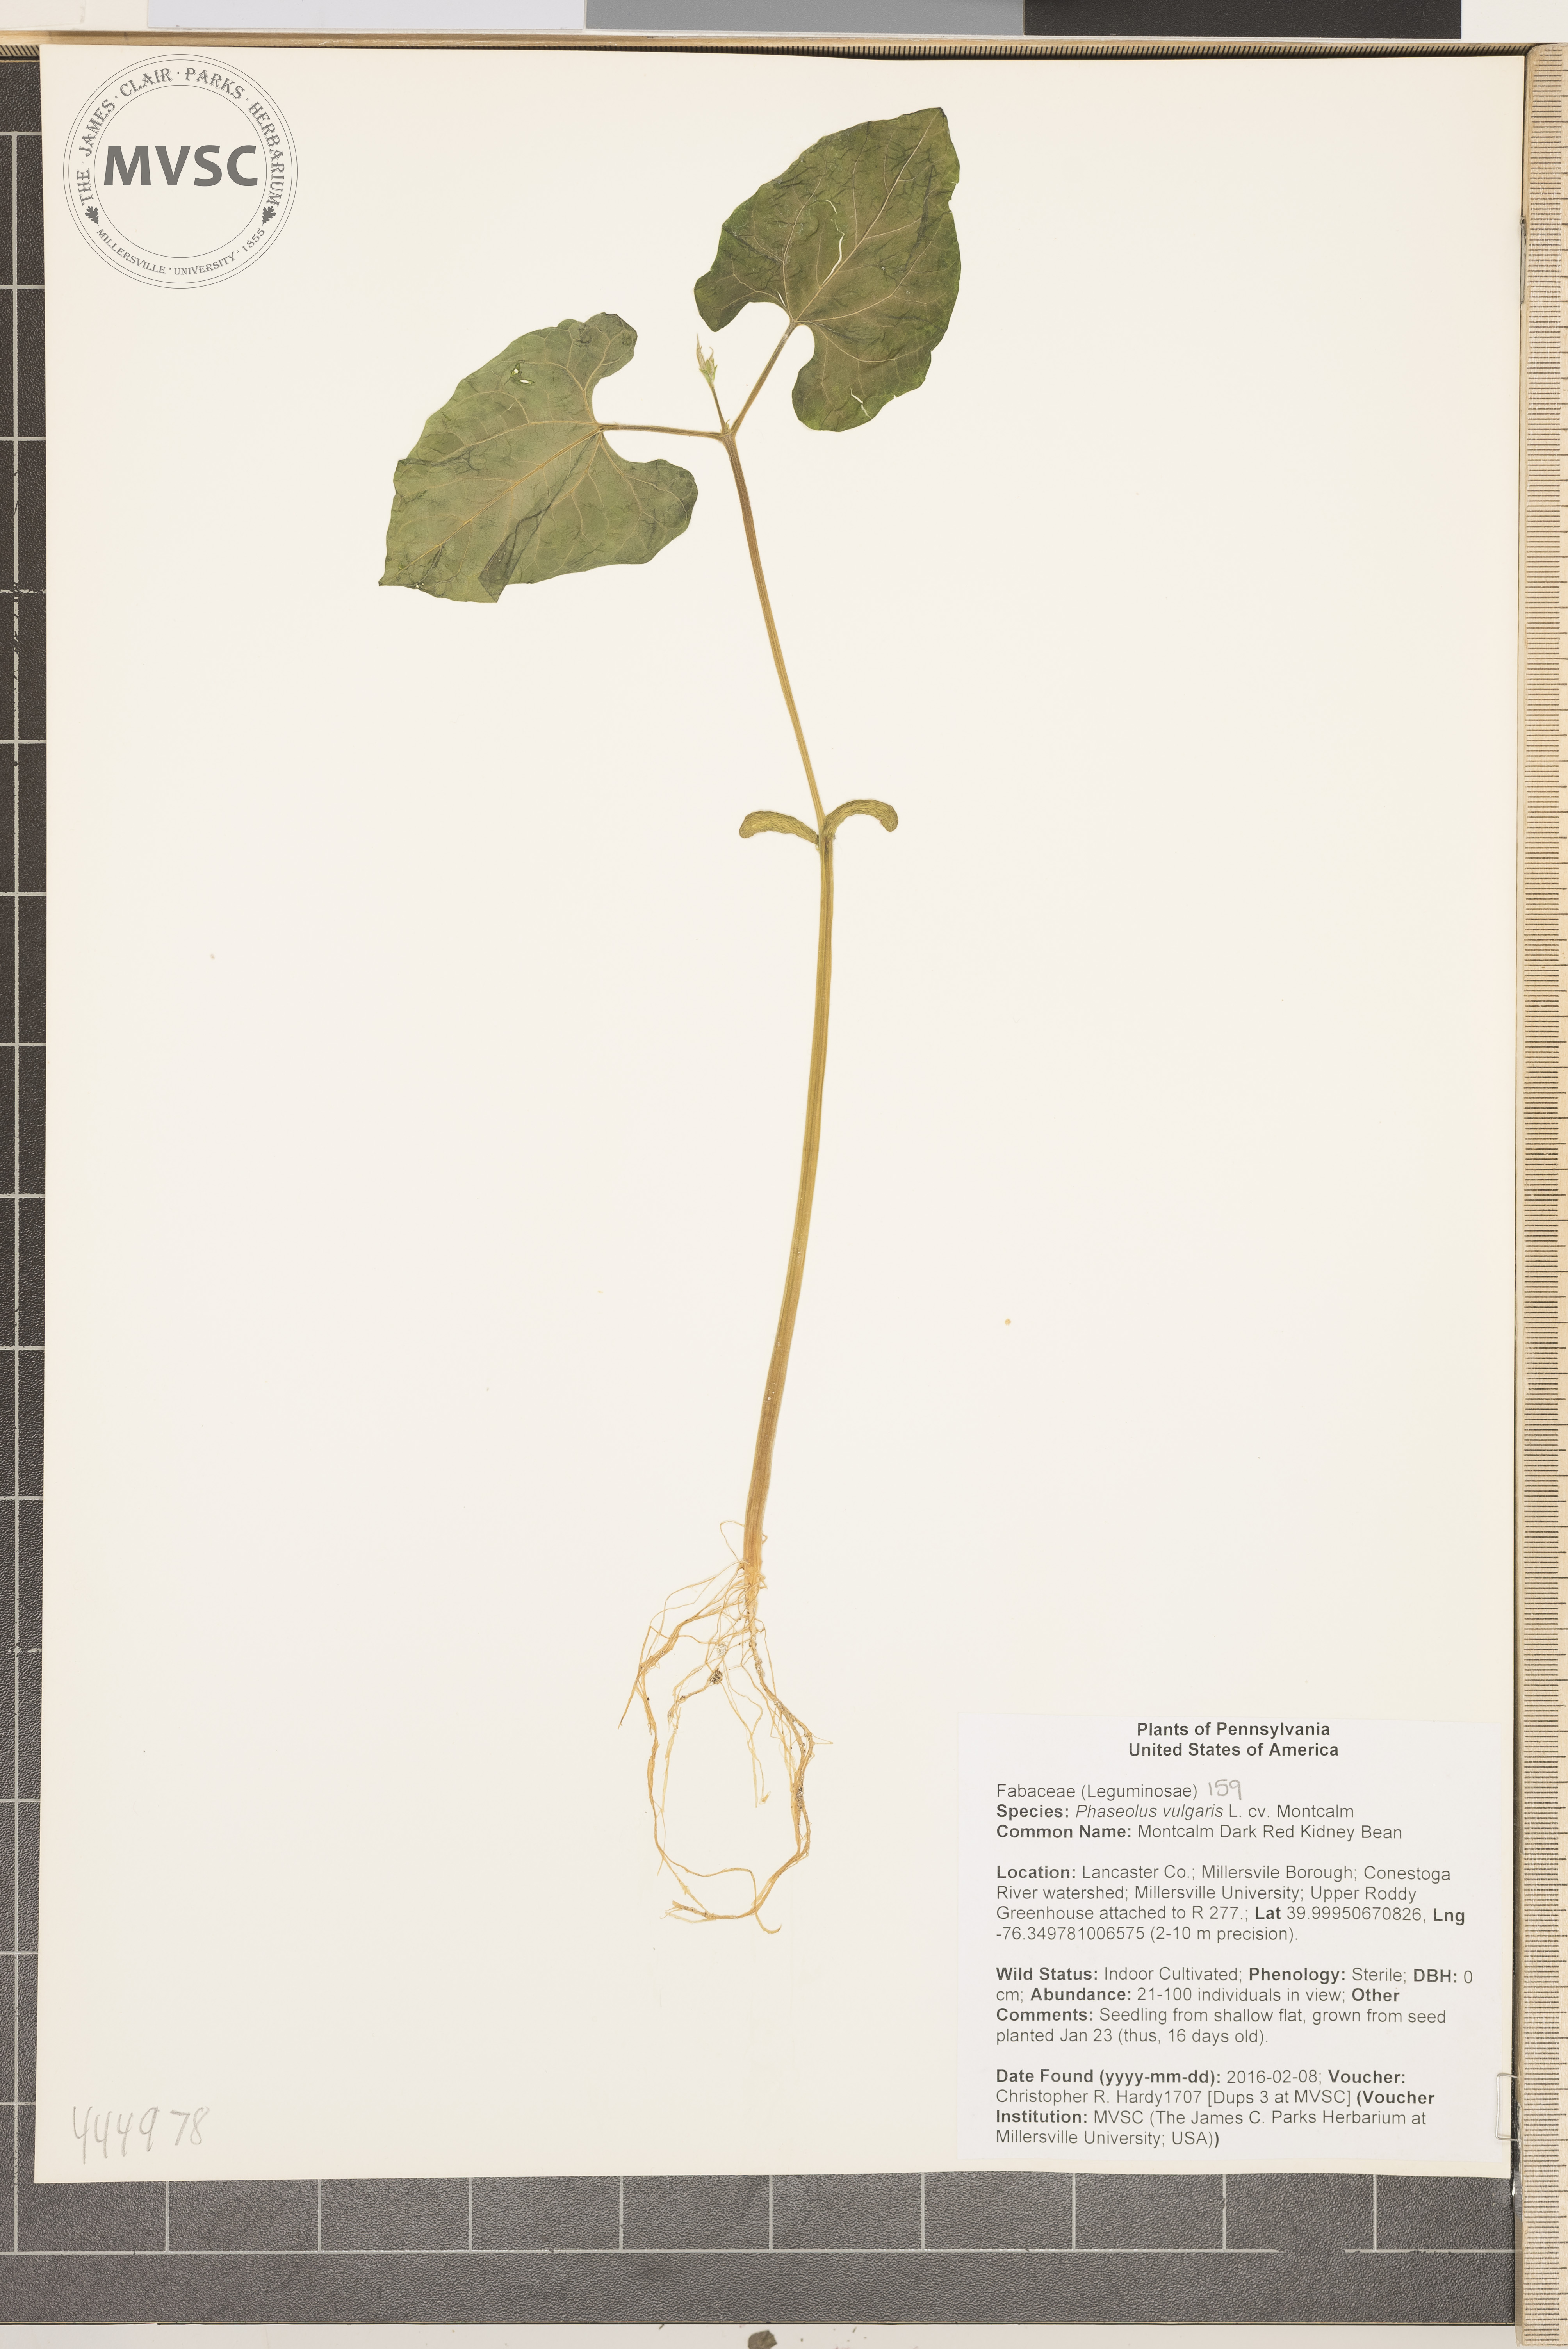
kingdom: Plantae
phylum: Tracheophyta
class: Magnoliopsida
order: Fabales
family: Fabaceae
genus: Phaseolus
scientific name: Phaseolus vulgaris
